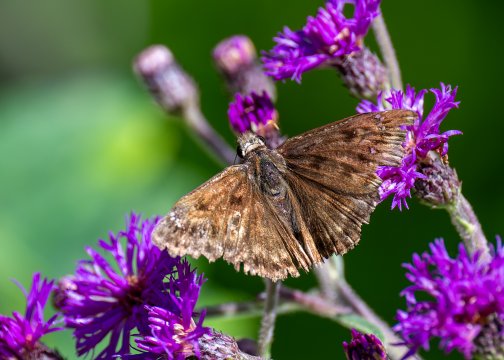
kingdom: Animalia
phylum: Arthropoda
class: Insecta
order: Lepidoptera
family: Hesperiidae
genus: Gesta
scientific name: Gesta
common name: Horace's Duskywing
